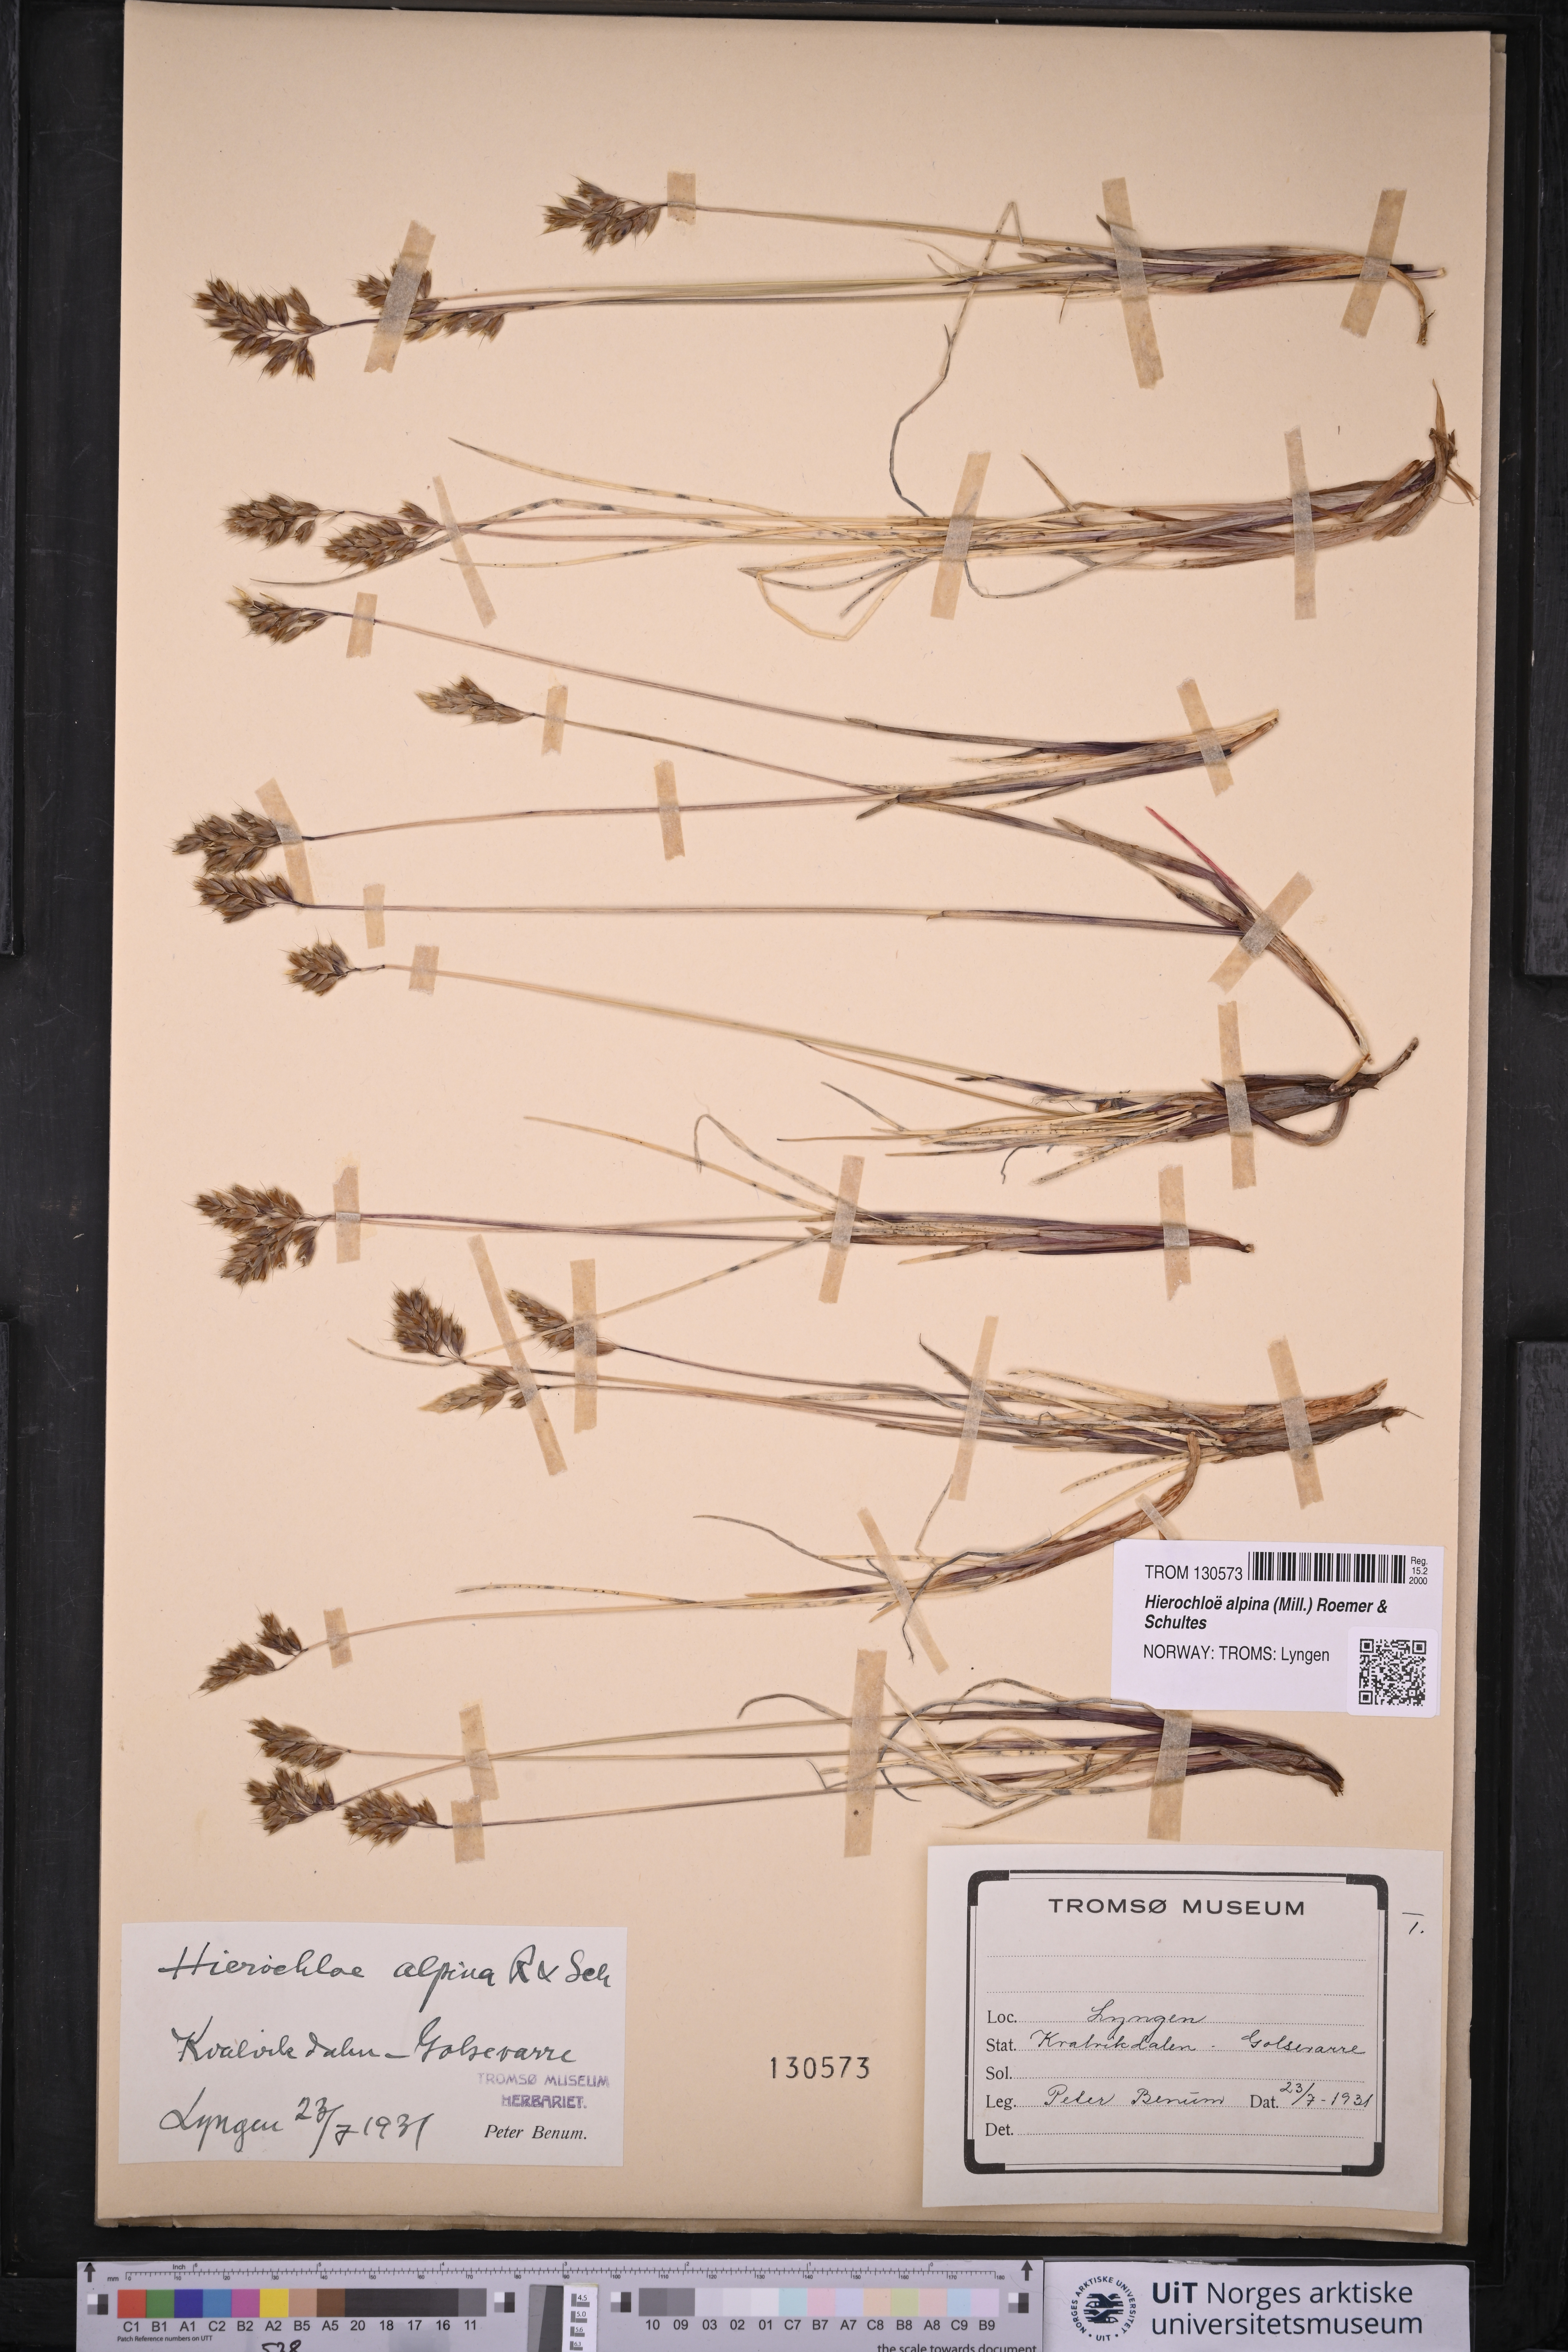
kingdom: Plantae
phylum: Tracheophyta
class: Liliopsida
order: Poales
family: Poaceae
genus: Anthoxanthum
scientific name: Anthoxanthum monticola
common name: Alpine sweetgrass
